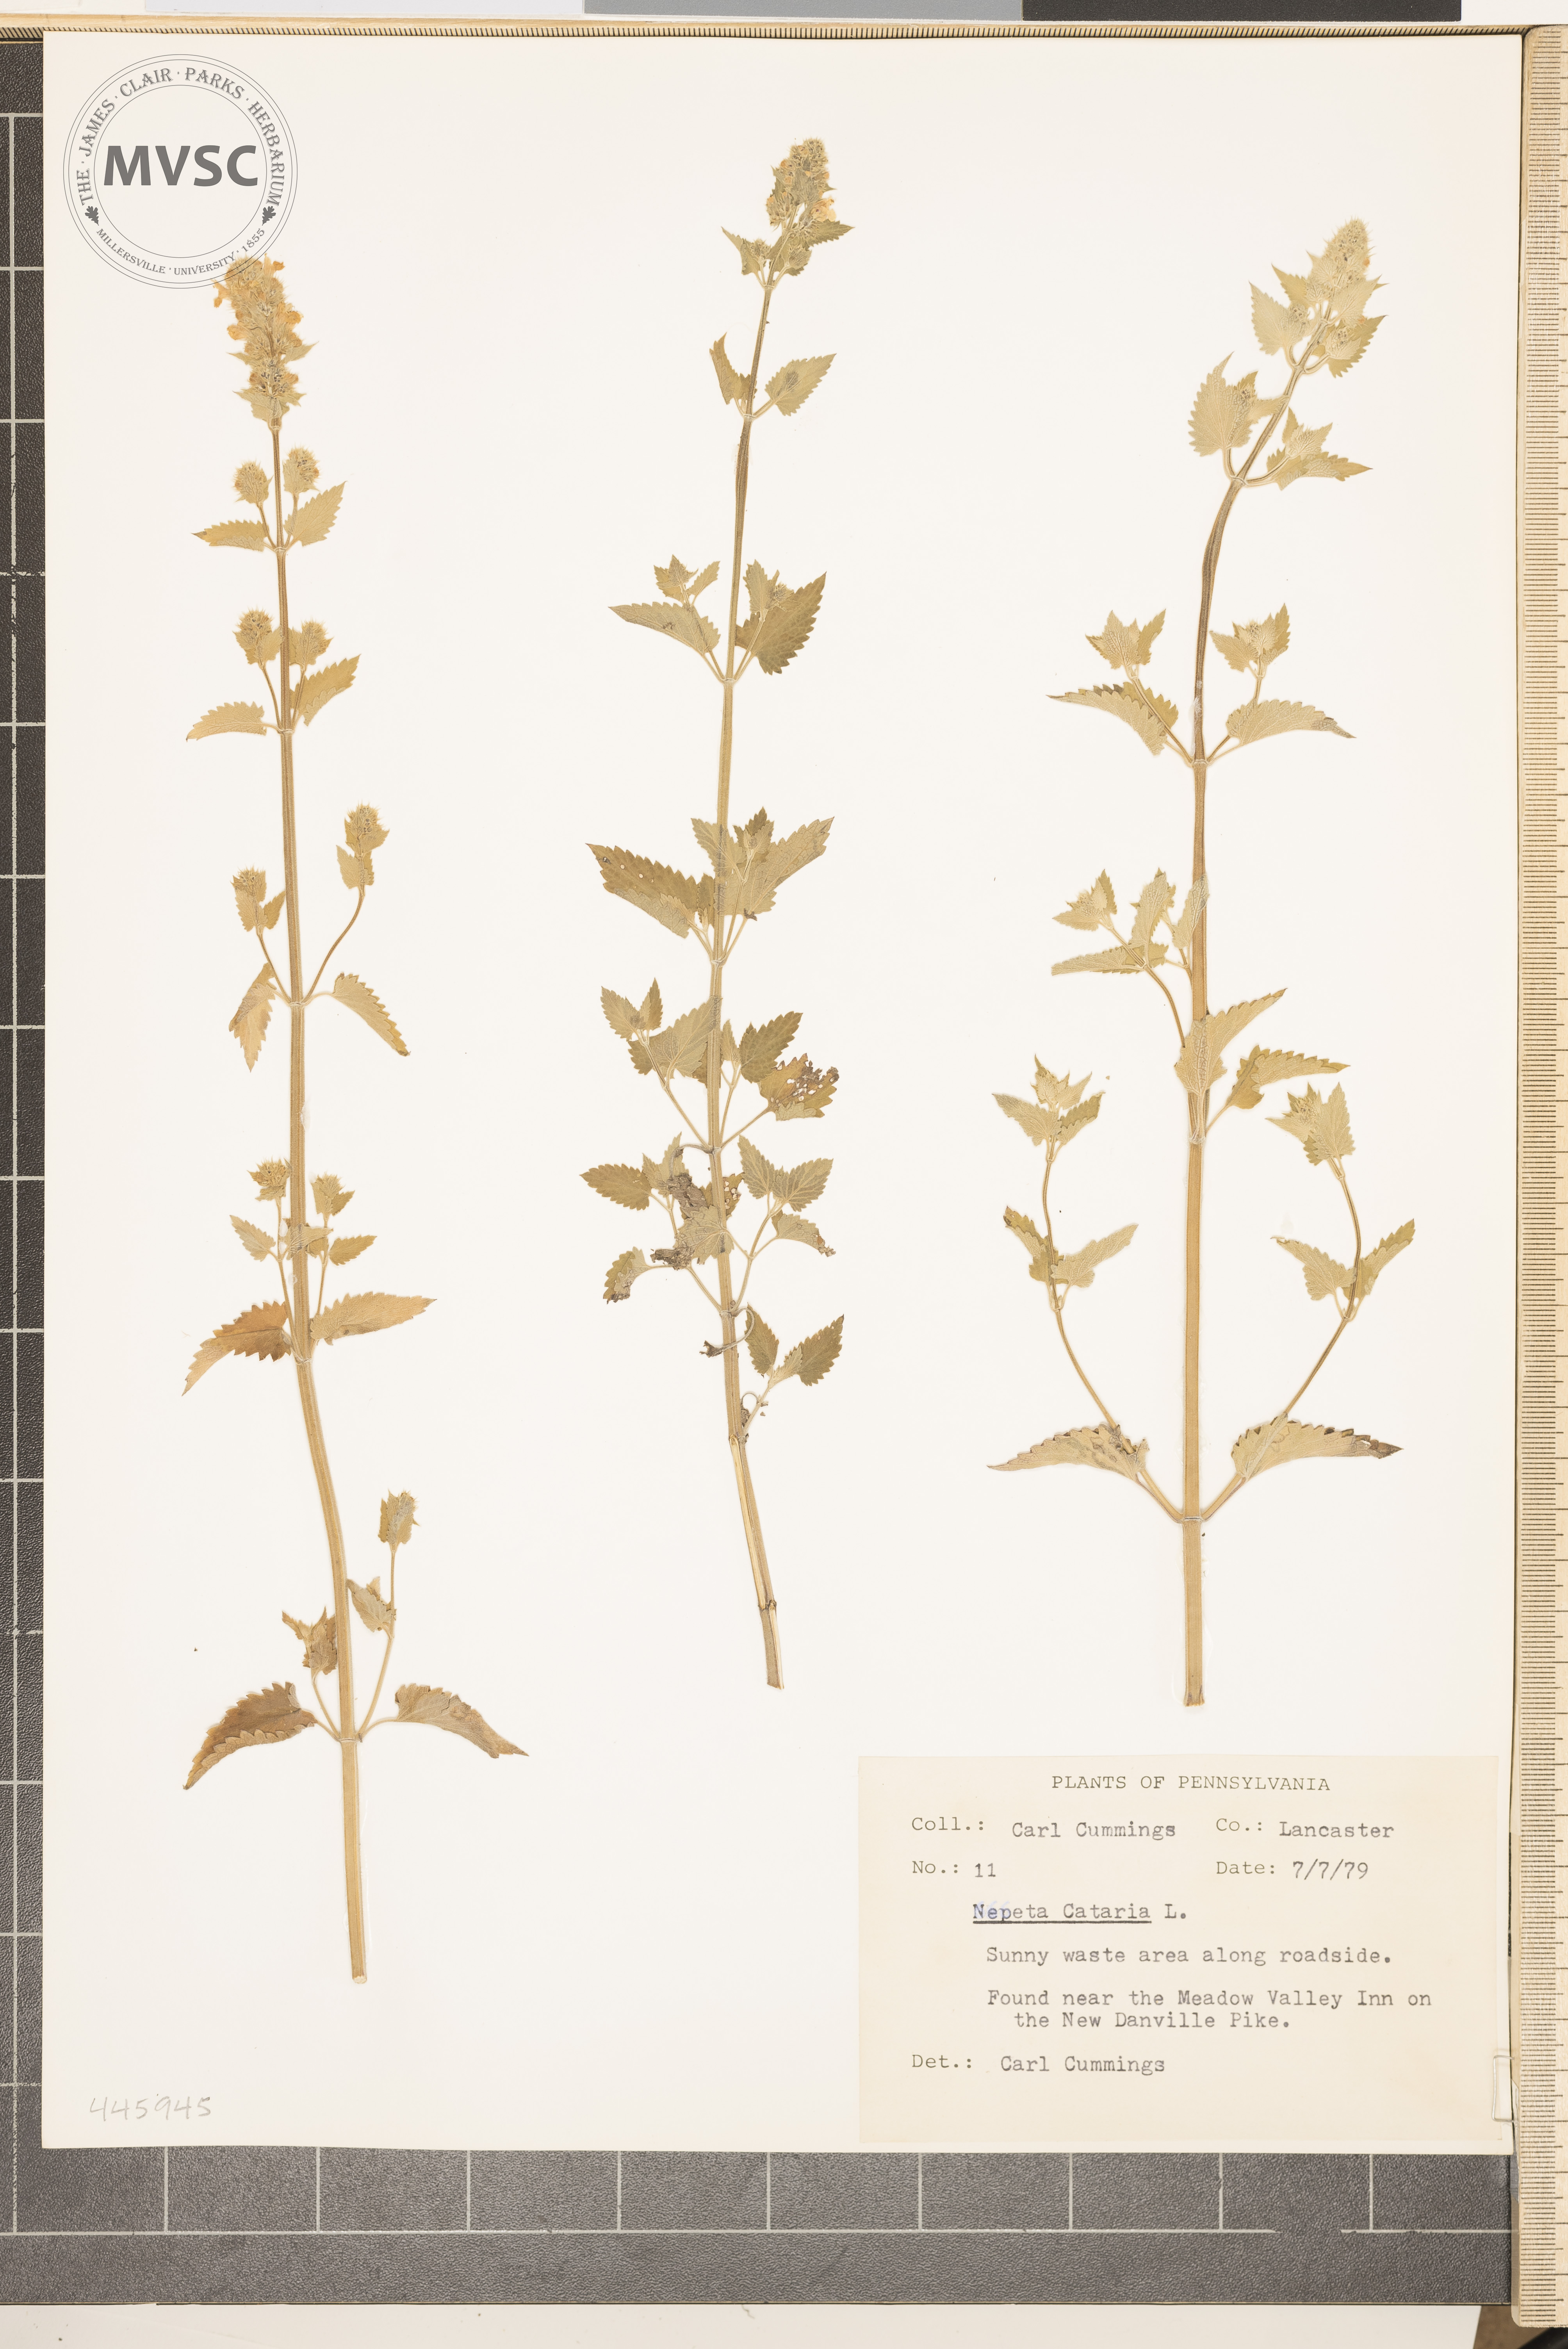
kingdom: Plantae
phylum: Tracheophyta
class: Magnoliopsida
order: Lamiales
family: Lamiaceae
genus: Nepeta
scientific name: Nepeta cataria
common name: Catnip
